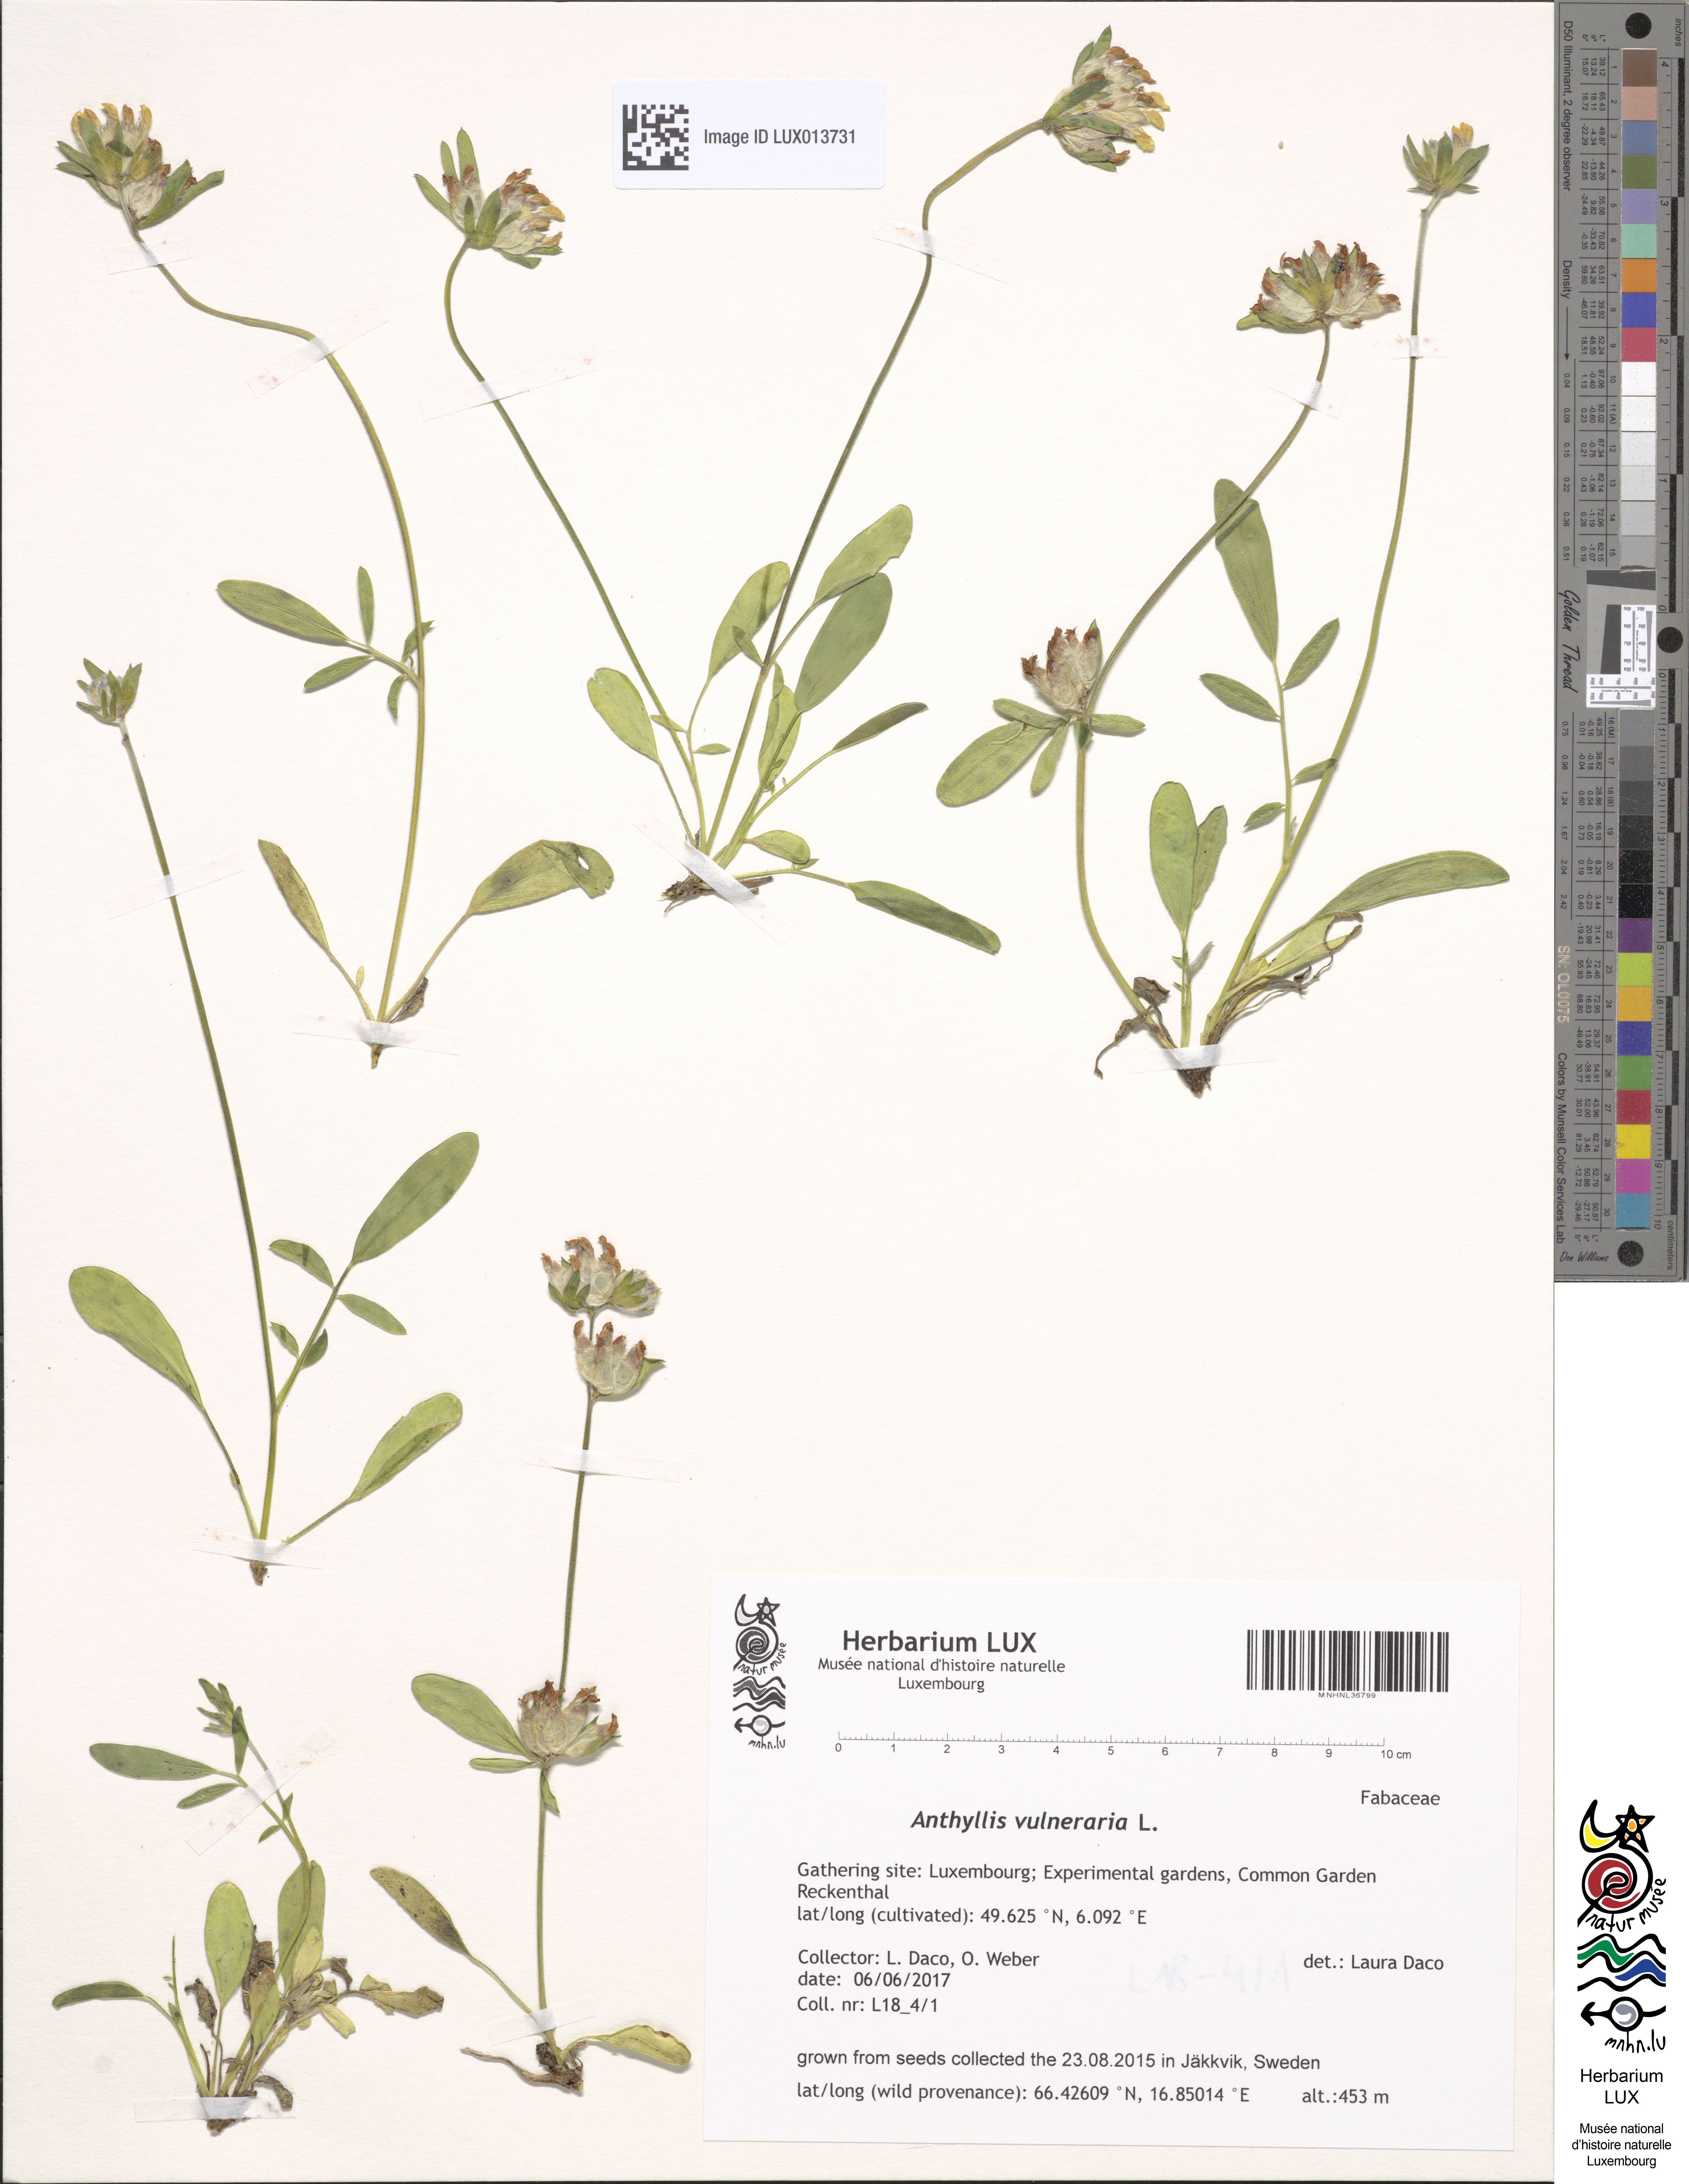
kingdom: Plantae
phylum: Tracheophyta
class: Magnoliopsida
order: Fabales
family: Fabaceae
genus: Anthyllis
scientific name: Anthyllis vulneraria
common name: Kidney vetch
